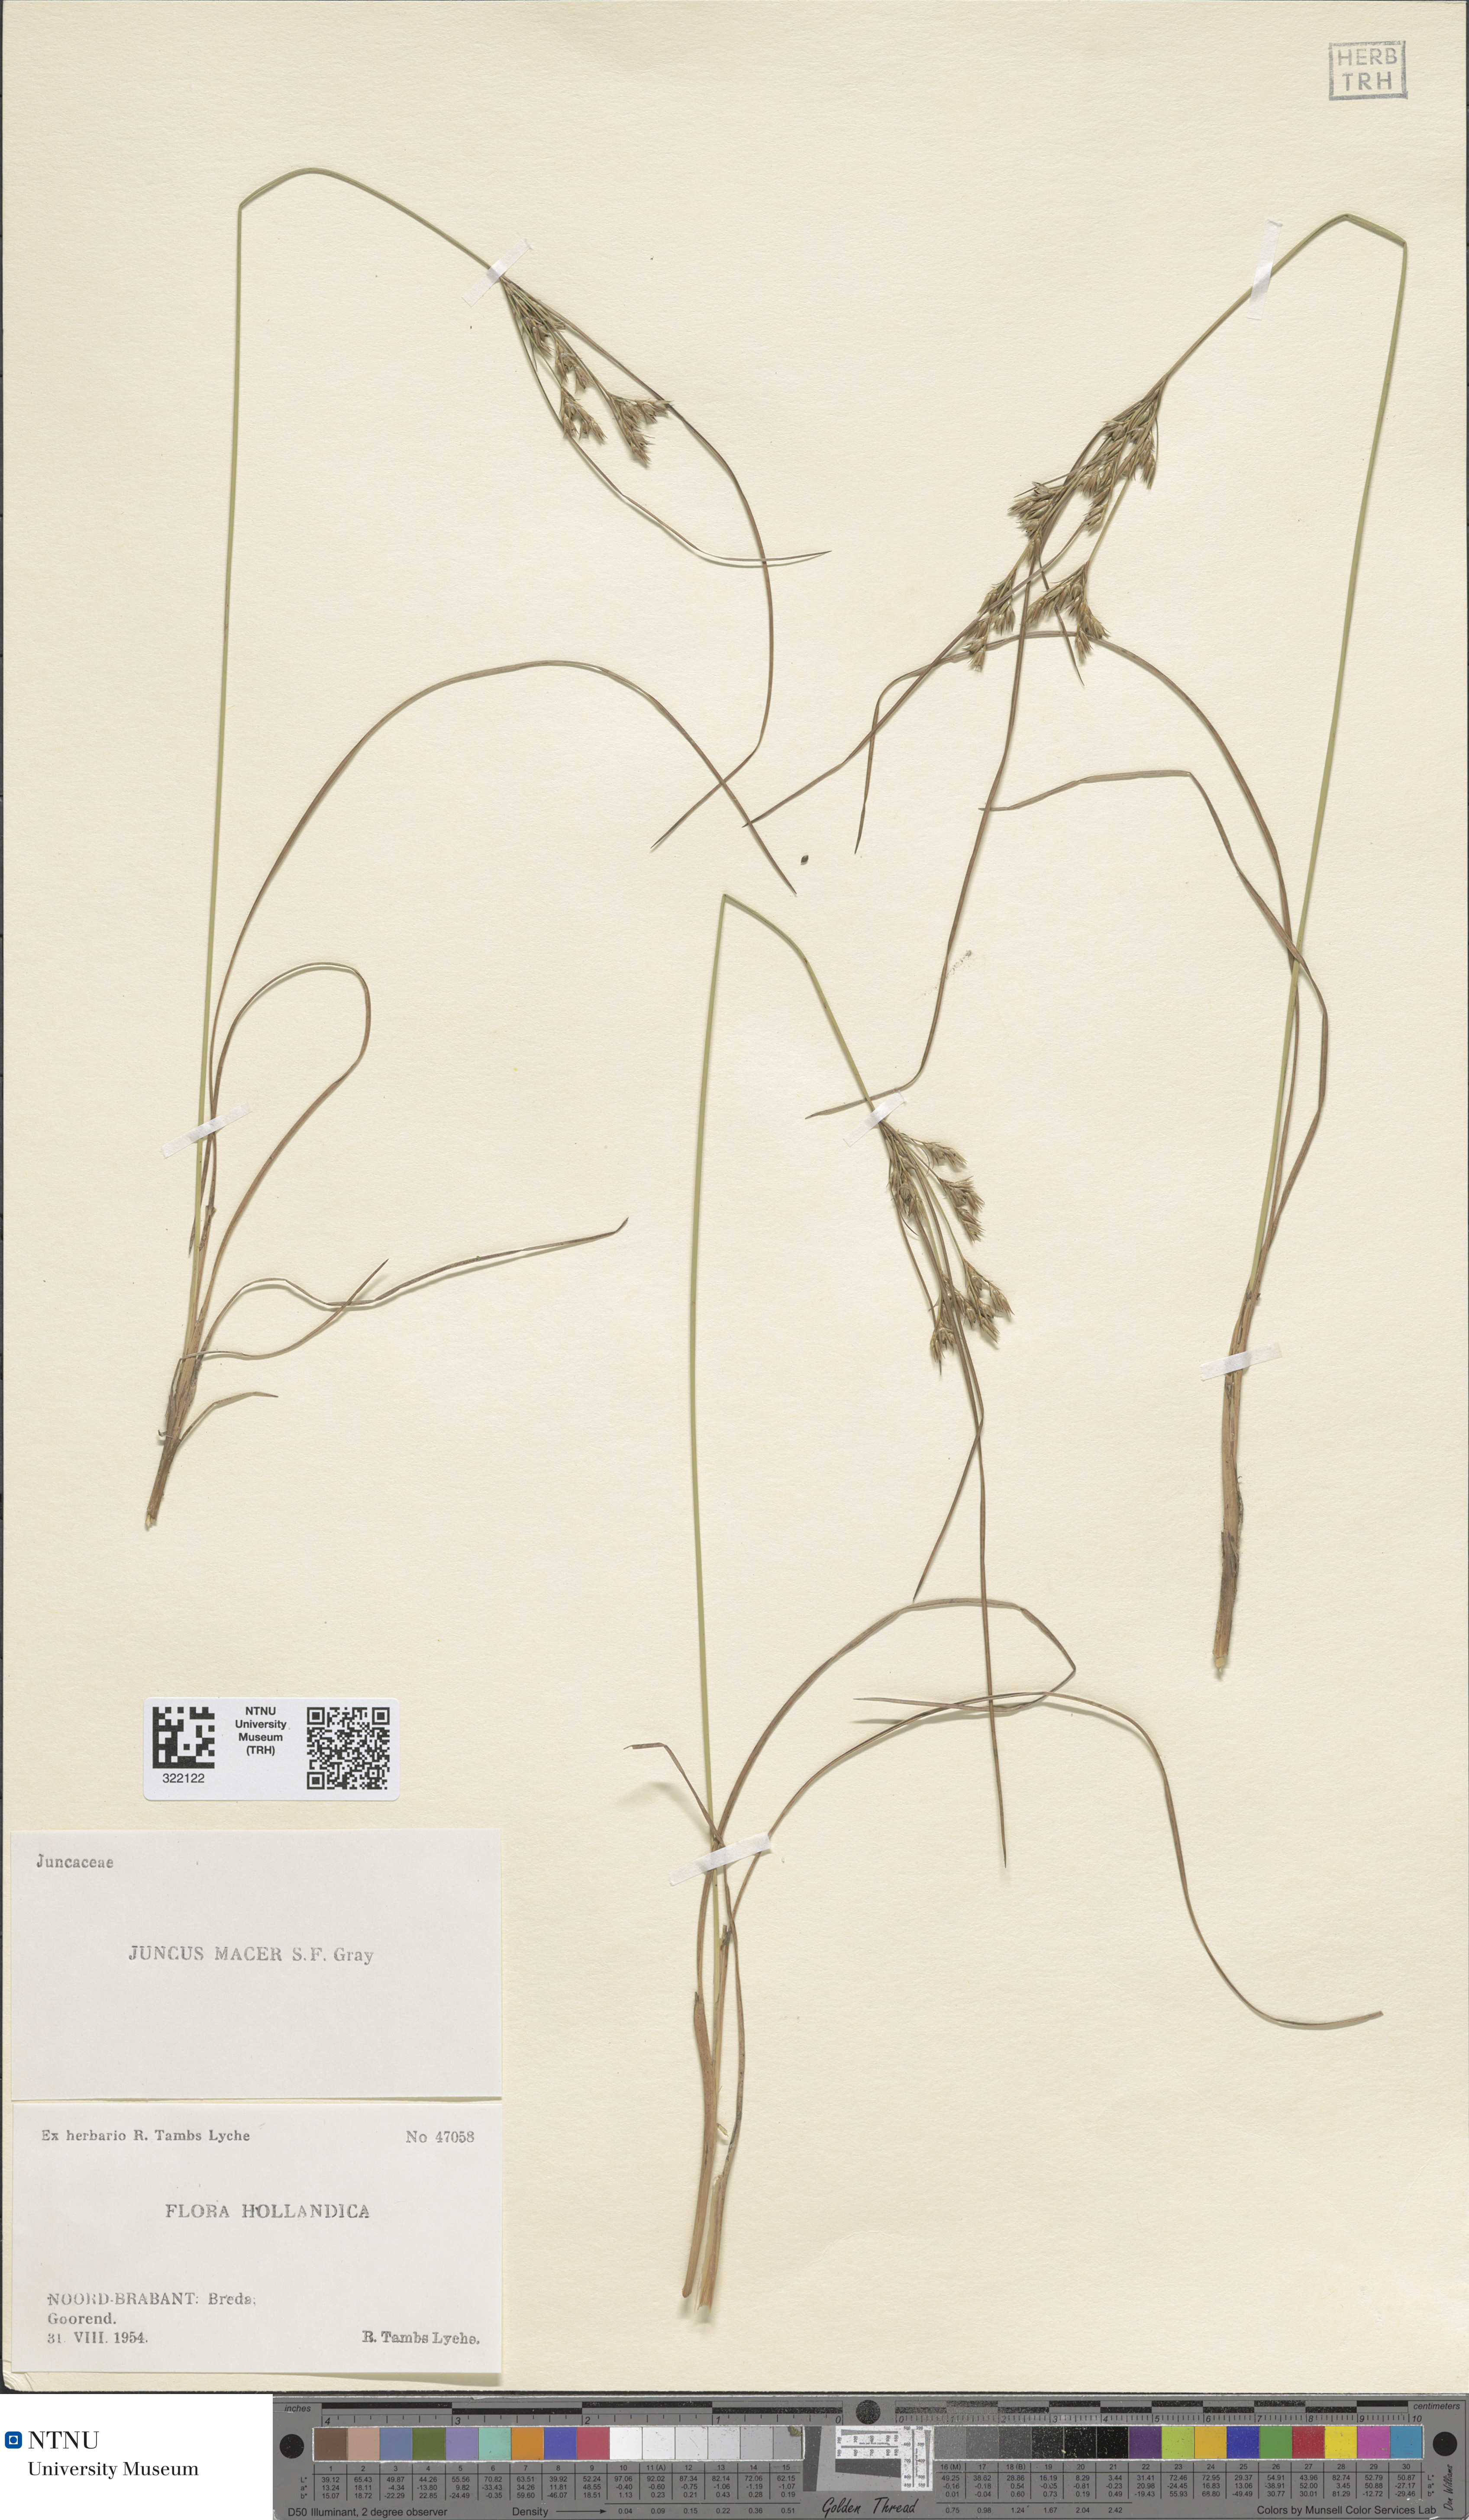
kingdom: Plantae
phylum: Tracheophyta
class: Liliopsida
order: Poales
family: Juncaceae
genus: Juncus
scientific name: Juncus tenuis
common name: Slender rush
